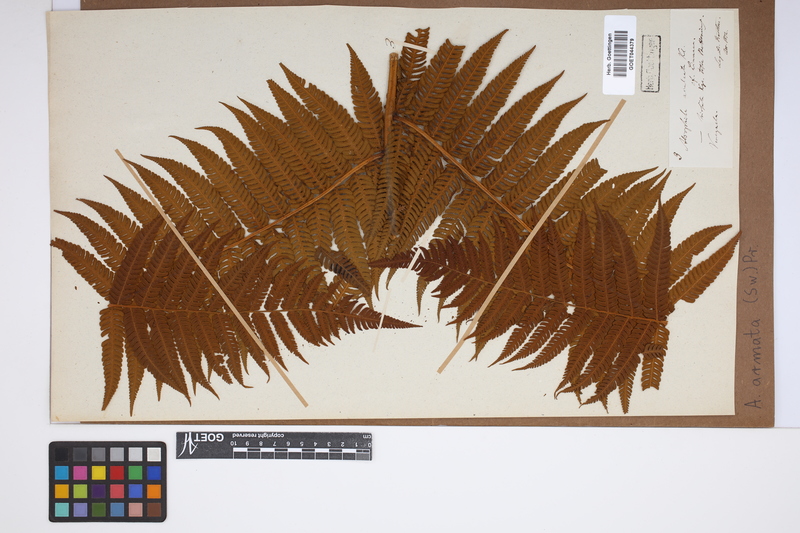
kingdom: Plantae
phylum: Tracheophyta
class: Polypodiopsida
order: Cyatheales
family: Cyatheaceae
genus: Cyathea
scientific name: Cyathea armata
